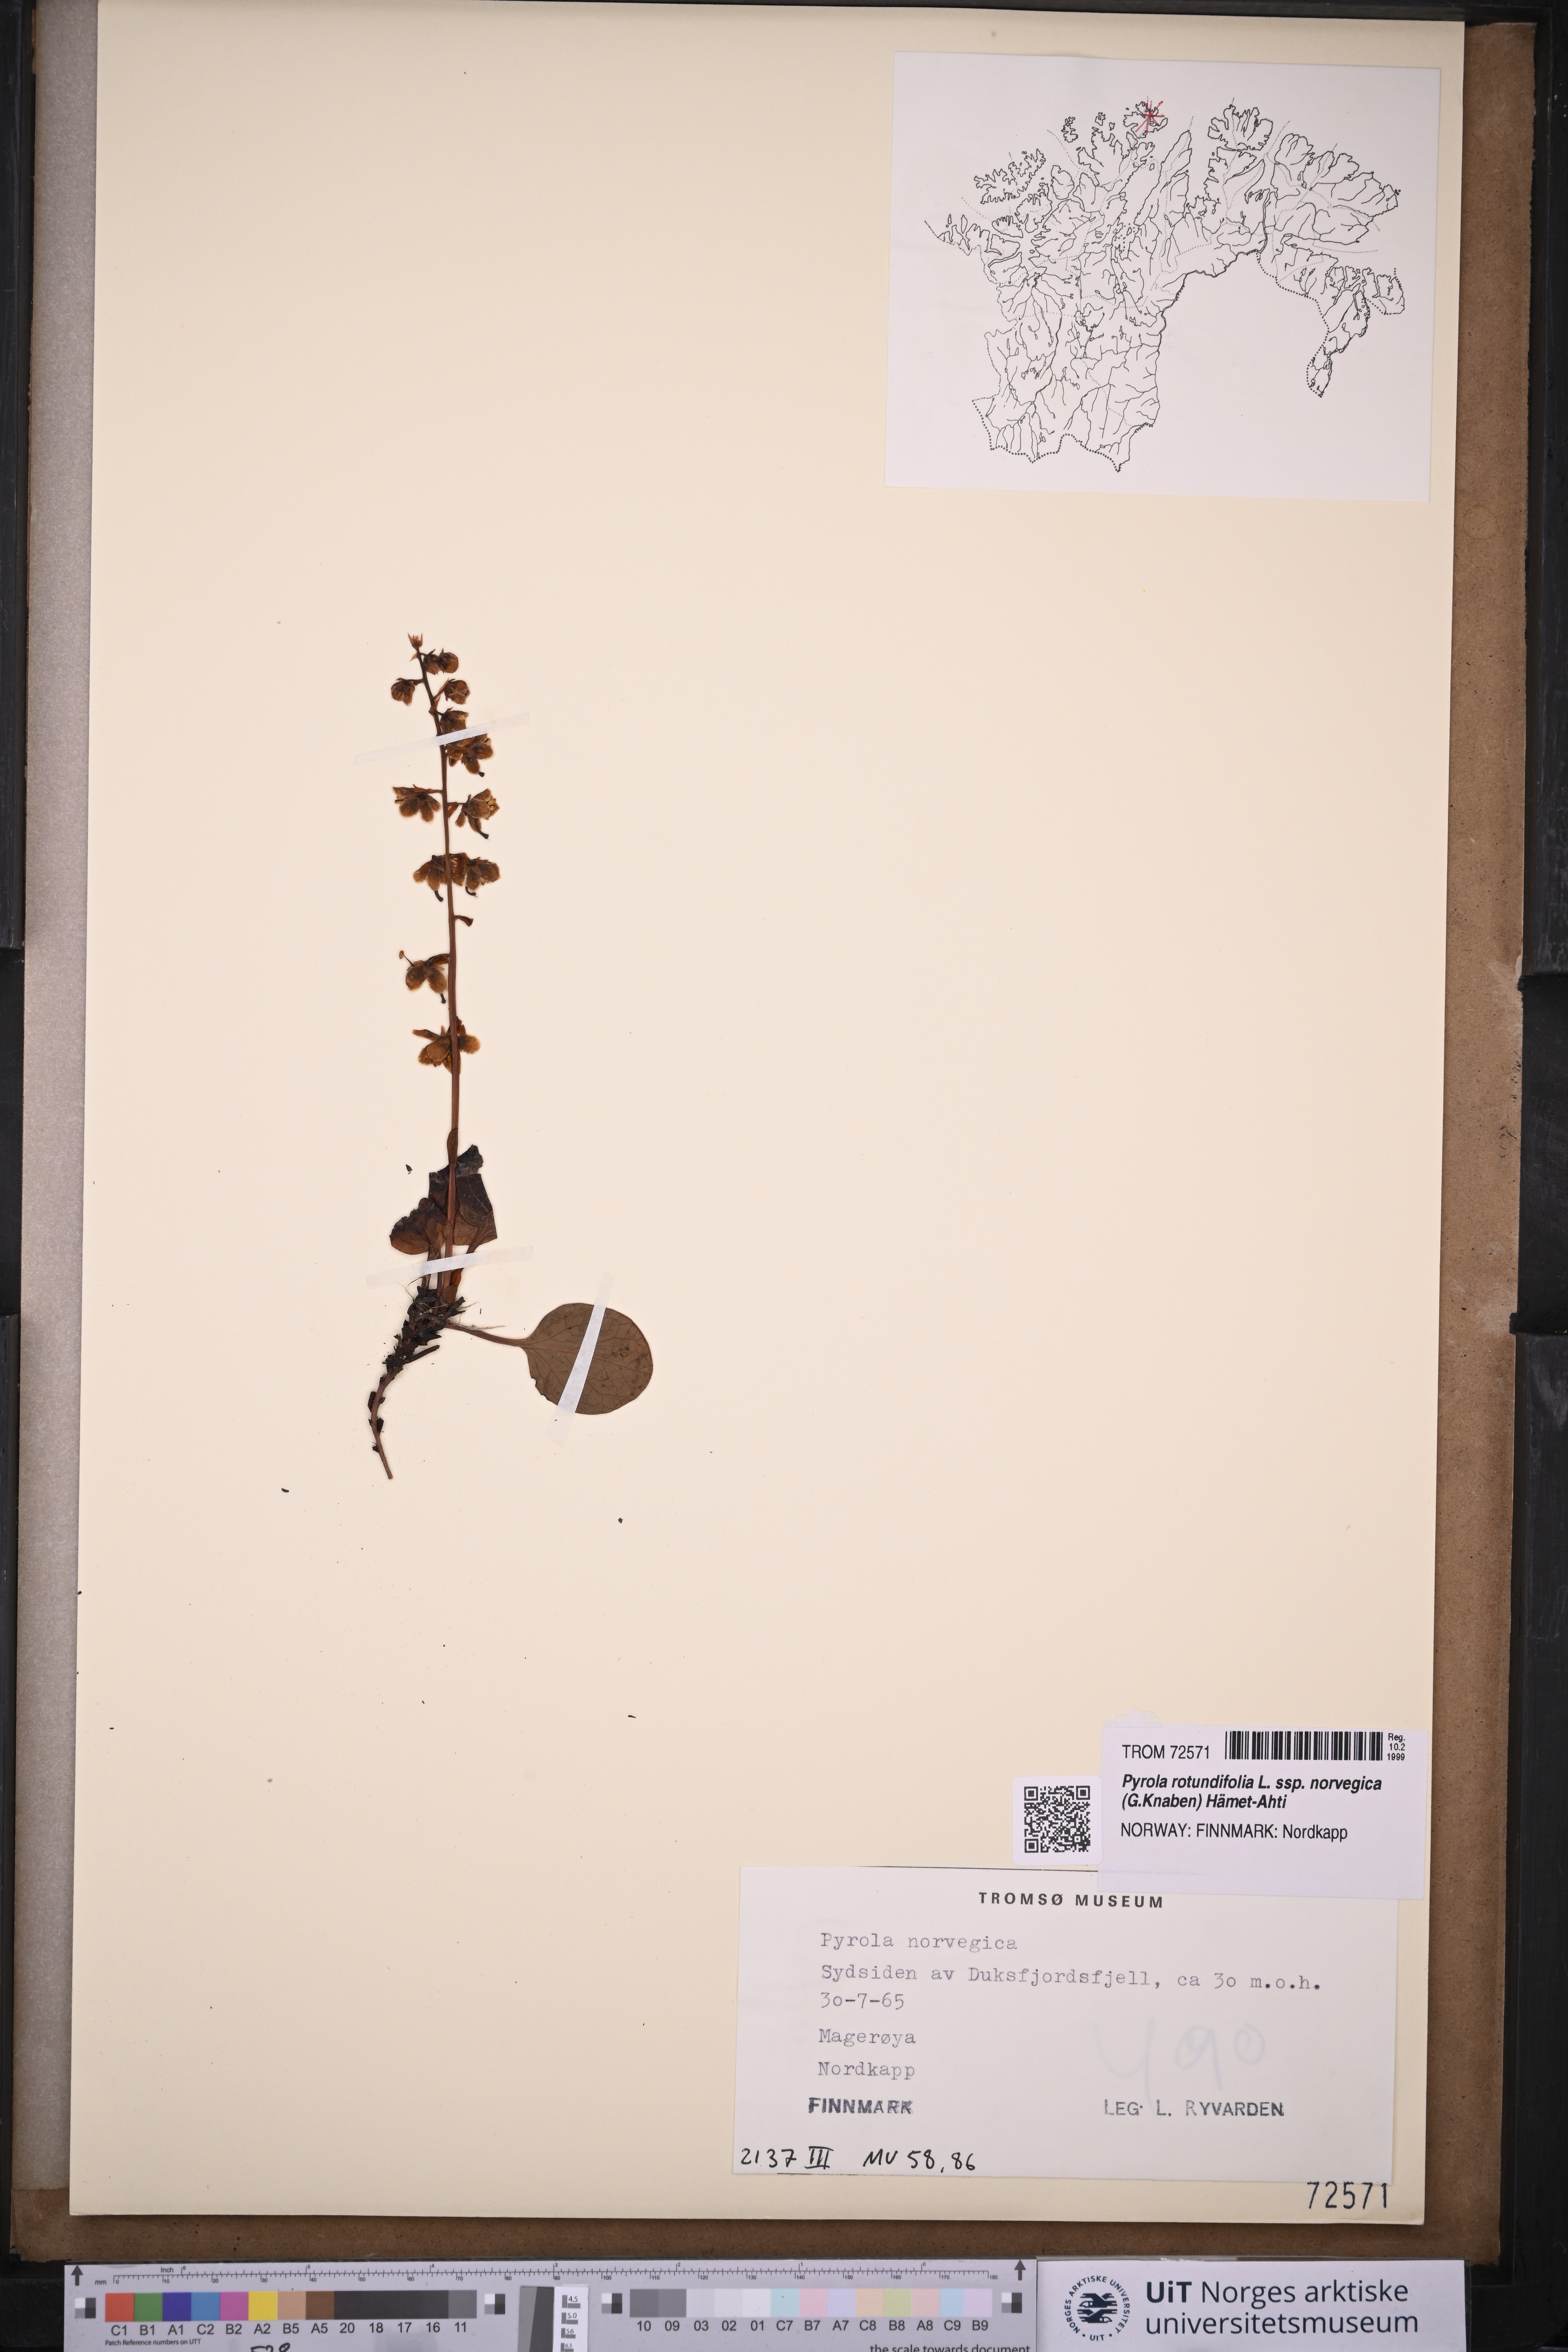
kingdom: Plantae
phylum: Tracheophyta
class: Magnoliopsida
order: Ericales
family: Ericaceae
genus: Pyrola
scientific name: Pyrola rotundifolia
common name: Round-leaved wintergreen
